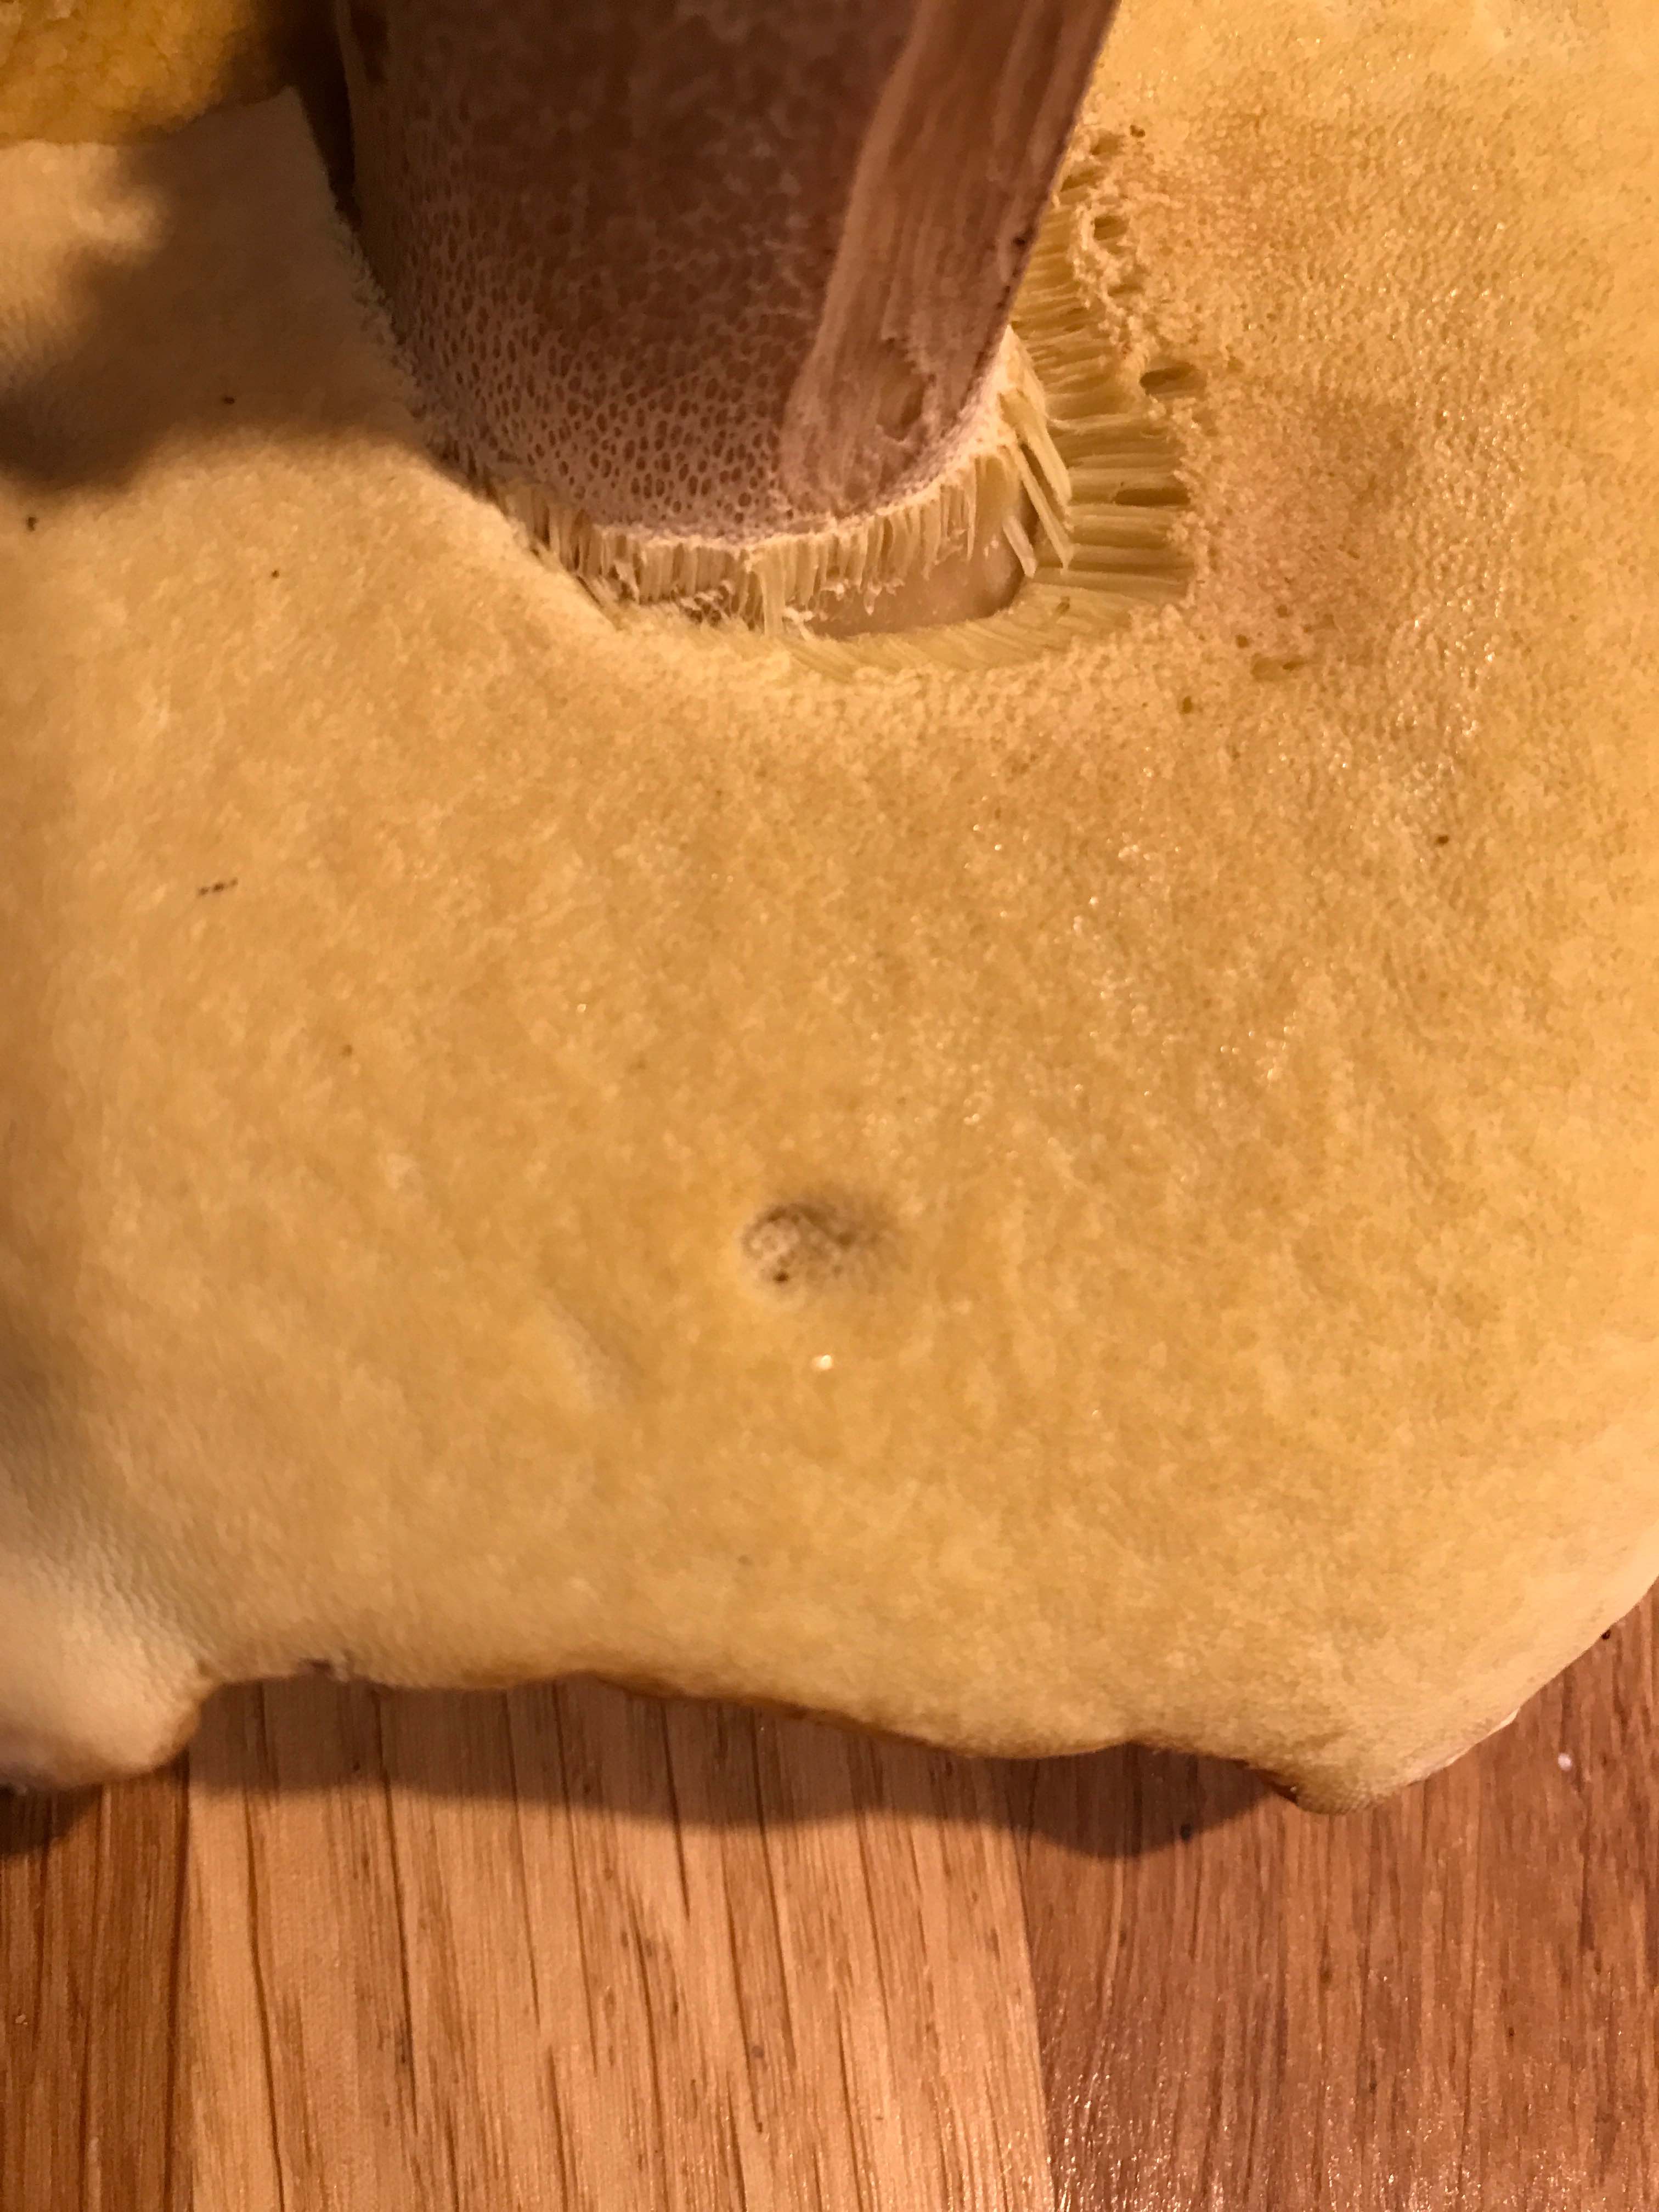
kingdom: Fungi
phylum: Basidiomycota
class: Agaricomycetes
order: Boletales
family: Boletaceae
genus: Boletus
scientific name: Boletus reticulatus
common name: sommer-rørhat
